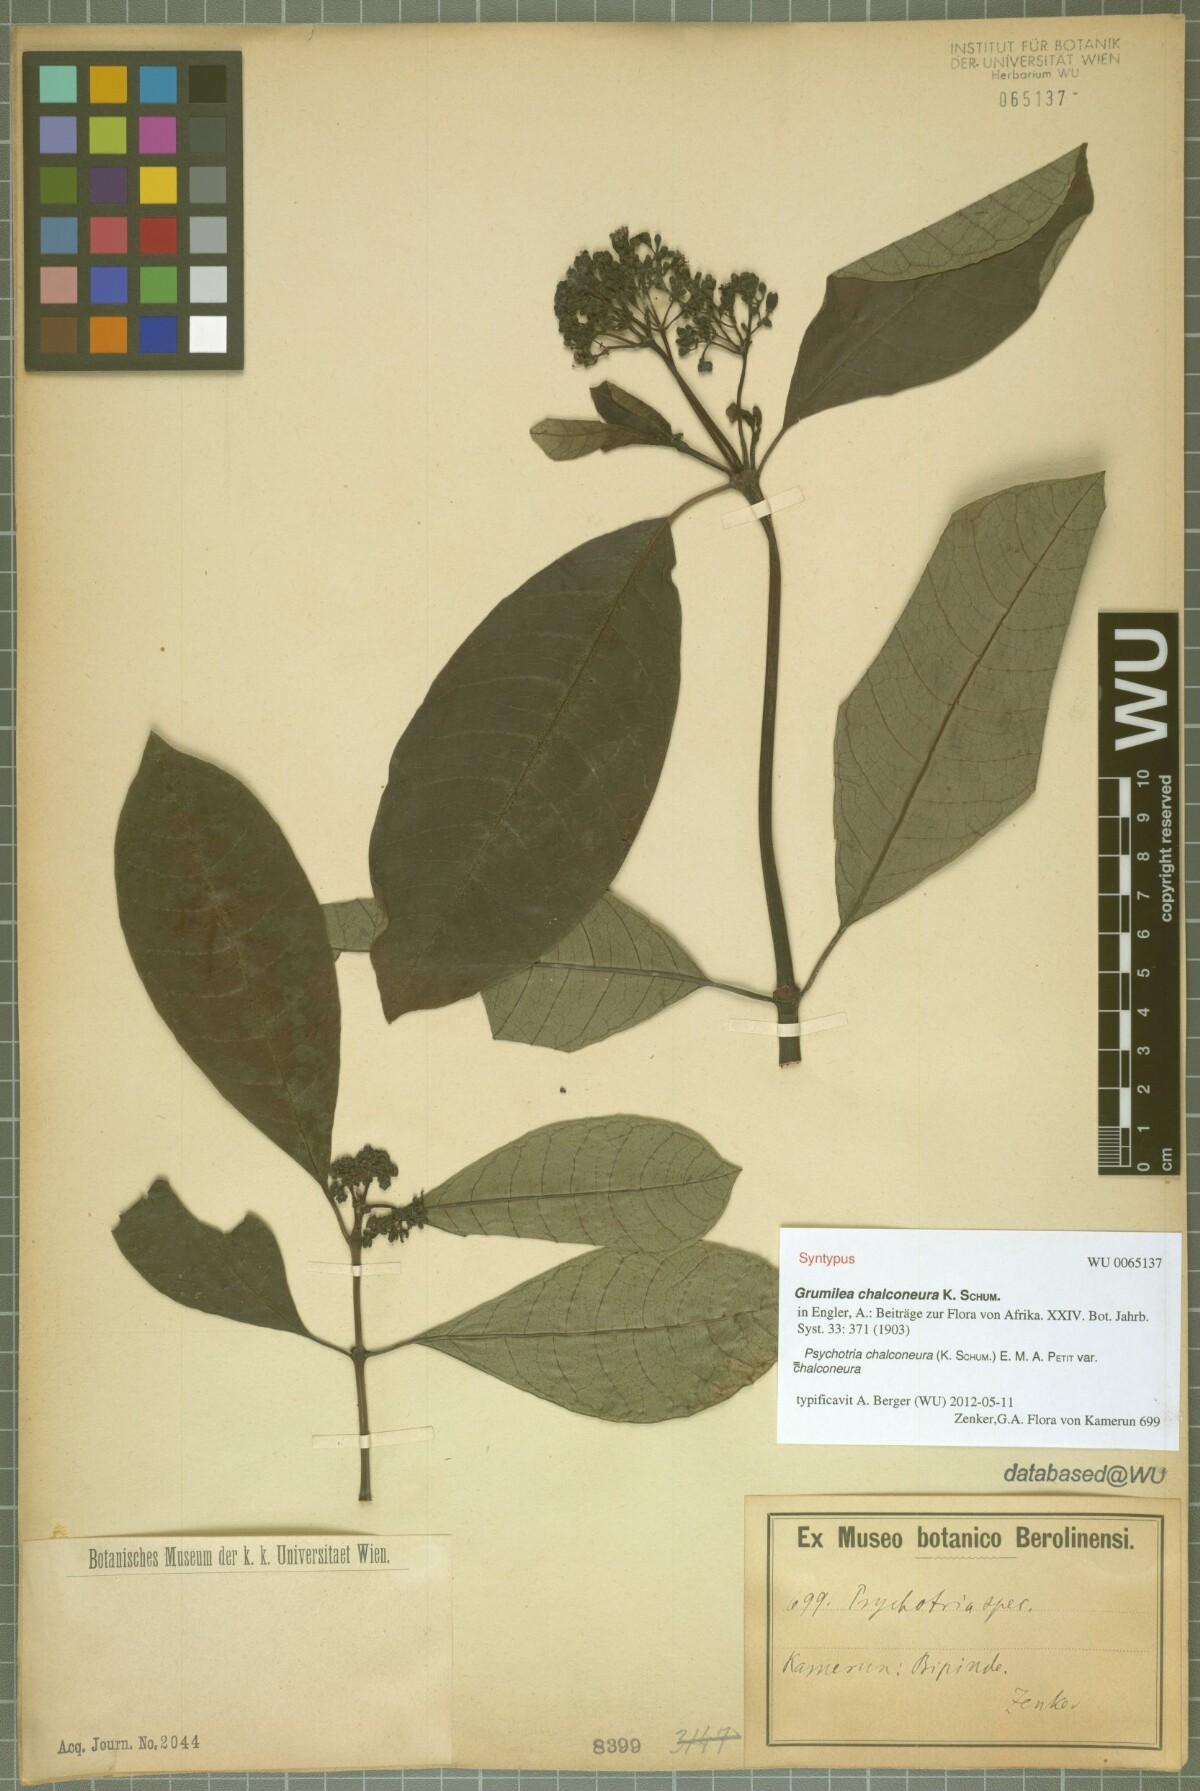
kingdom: Plantae
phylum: Tracheophyta
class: Magnoliopsida
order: Gentianales
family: Rubiaceae
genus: Psychotria
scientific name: Psychotria chalconeura
